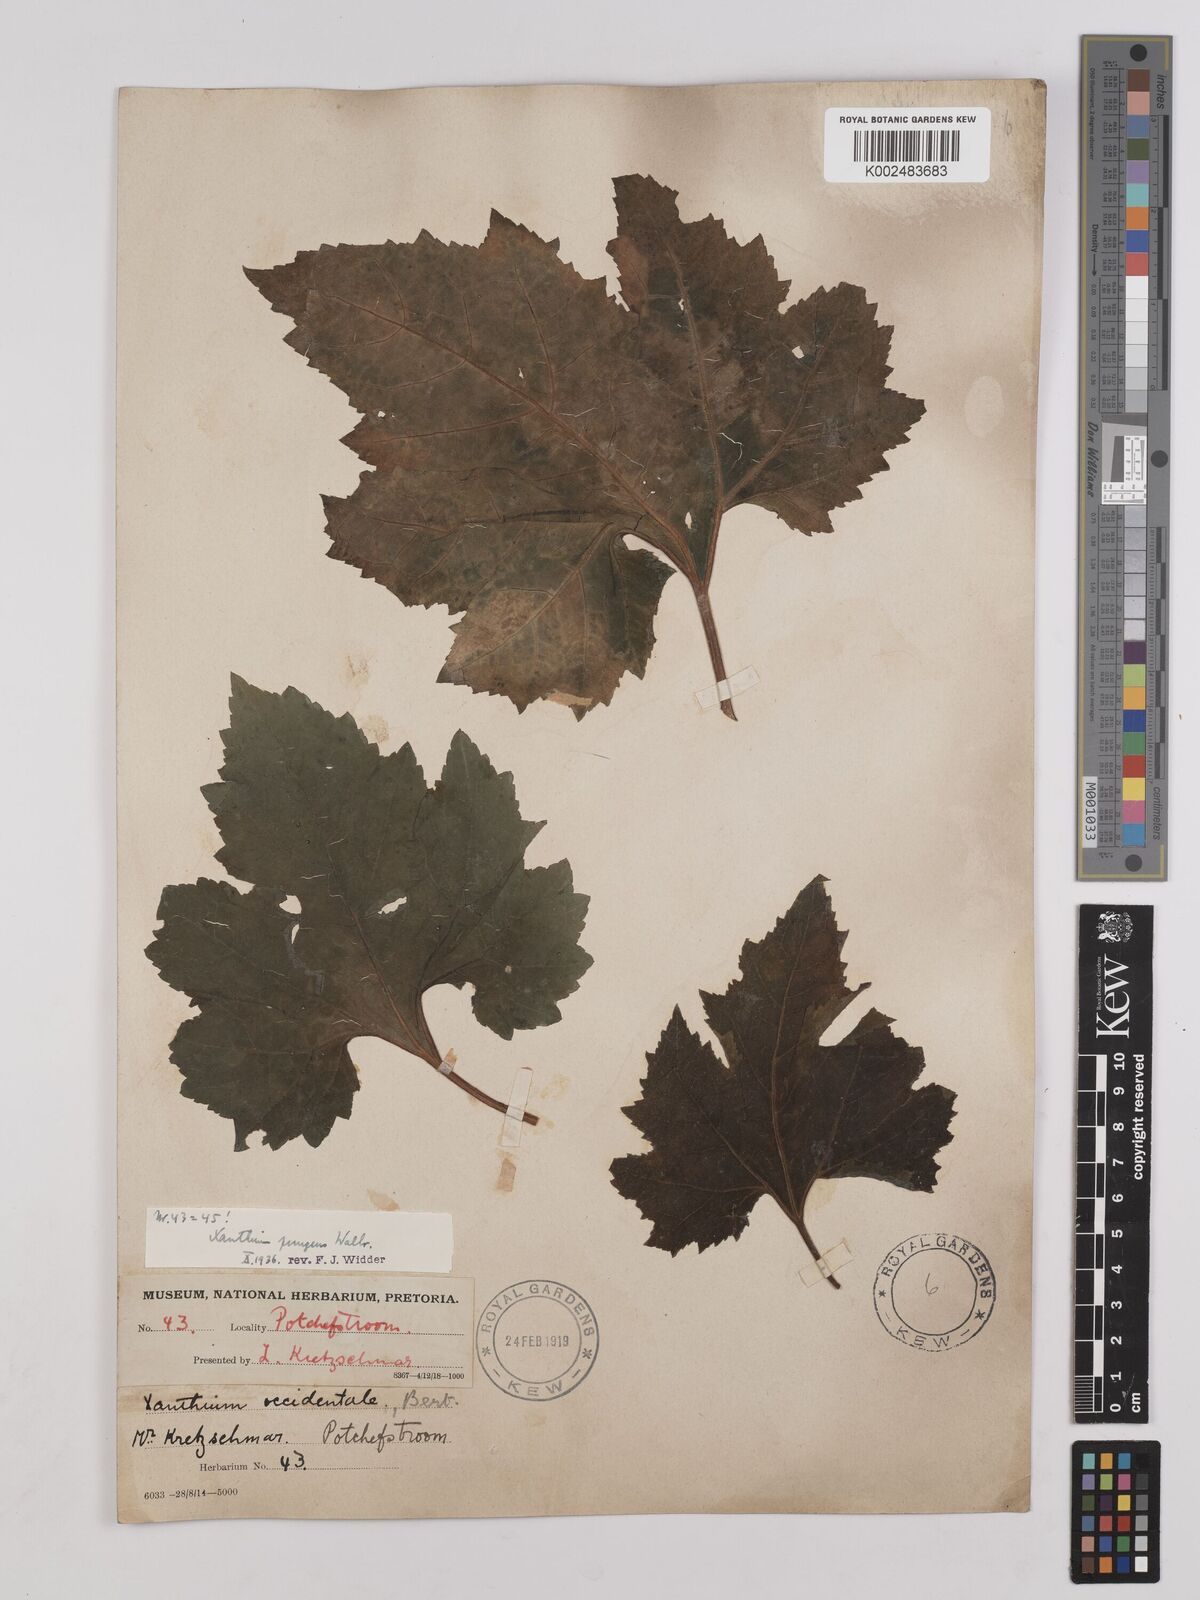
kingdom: Plantae
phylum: Tracheophyta
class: Magnoliopsida
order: Asterales
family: Asteraceae
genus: Xanthium
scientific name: Xanthium occidentale
